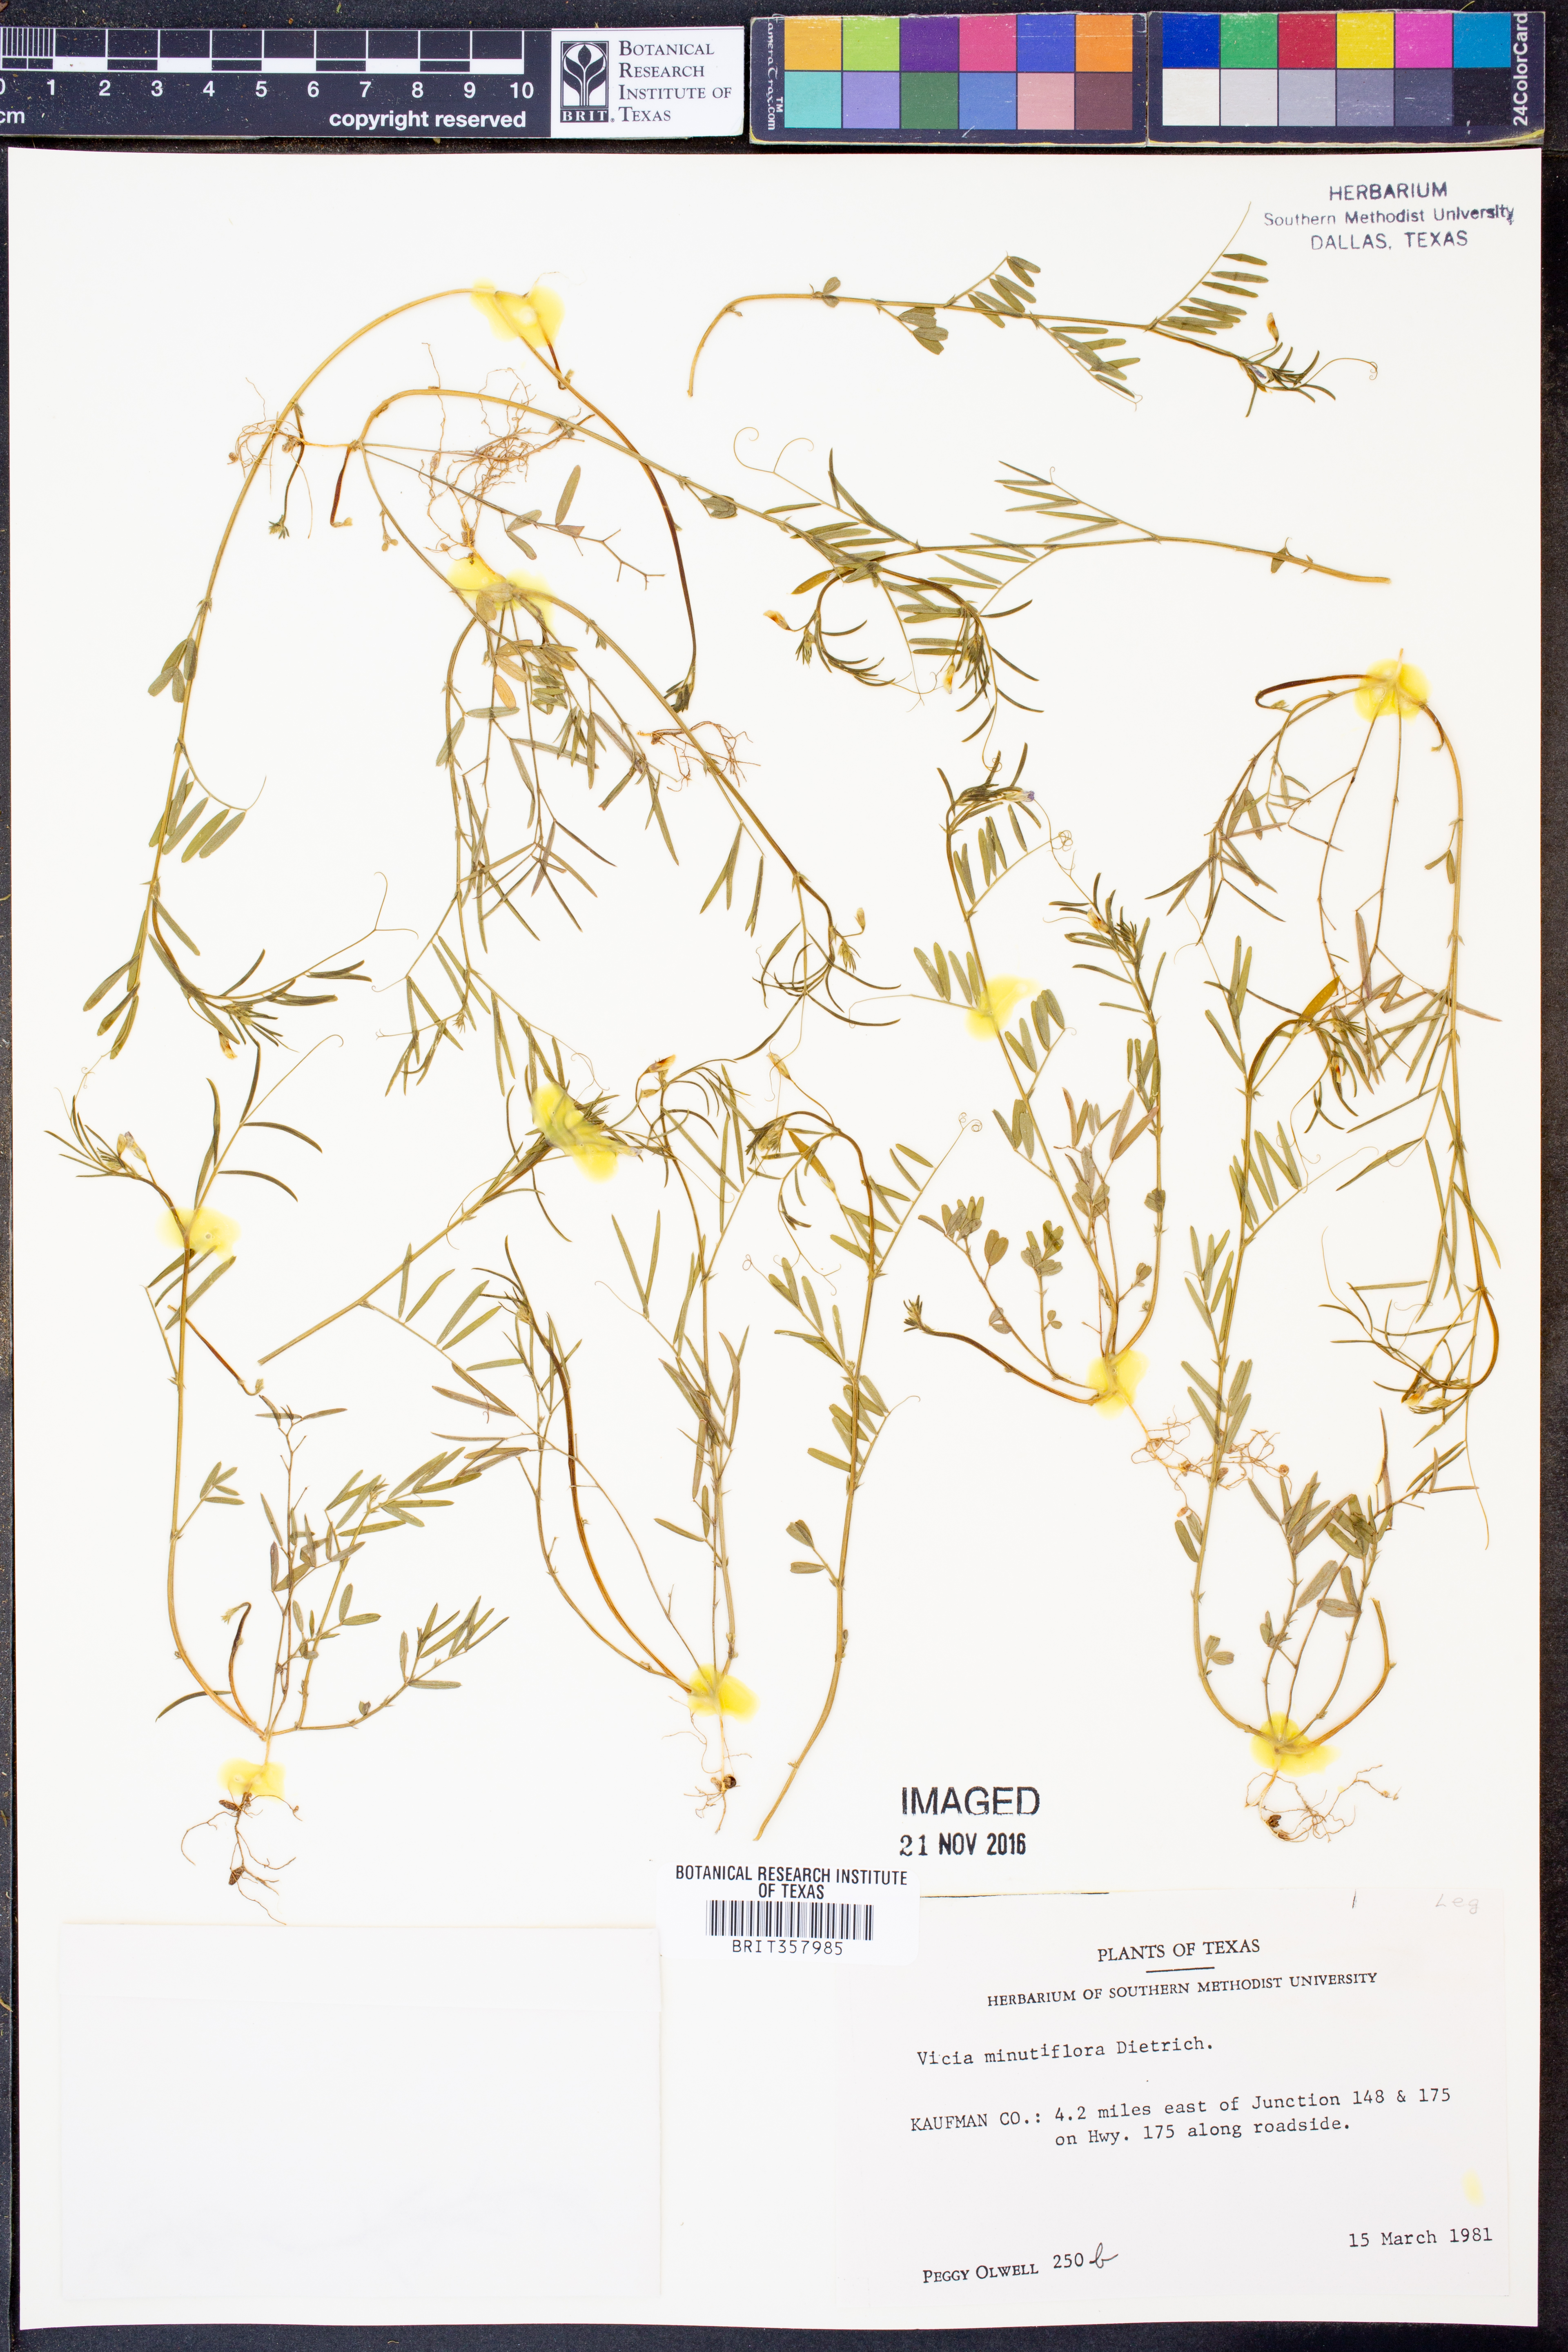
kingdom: Plantae
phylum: Tracheophyta
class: Magnoliopsida
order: Fabales
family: Fabaceae
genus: Vicia
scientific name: Vicia minutiflora
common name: Pygmy-flower vetch
